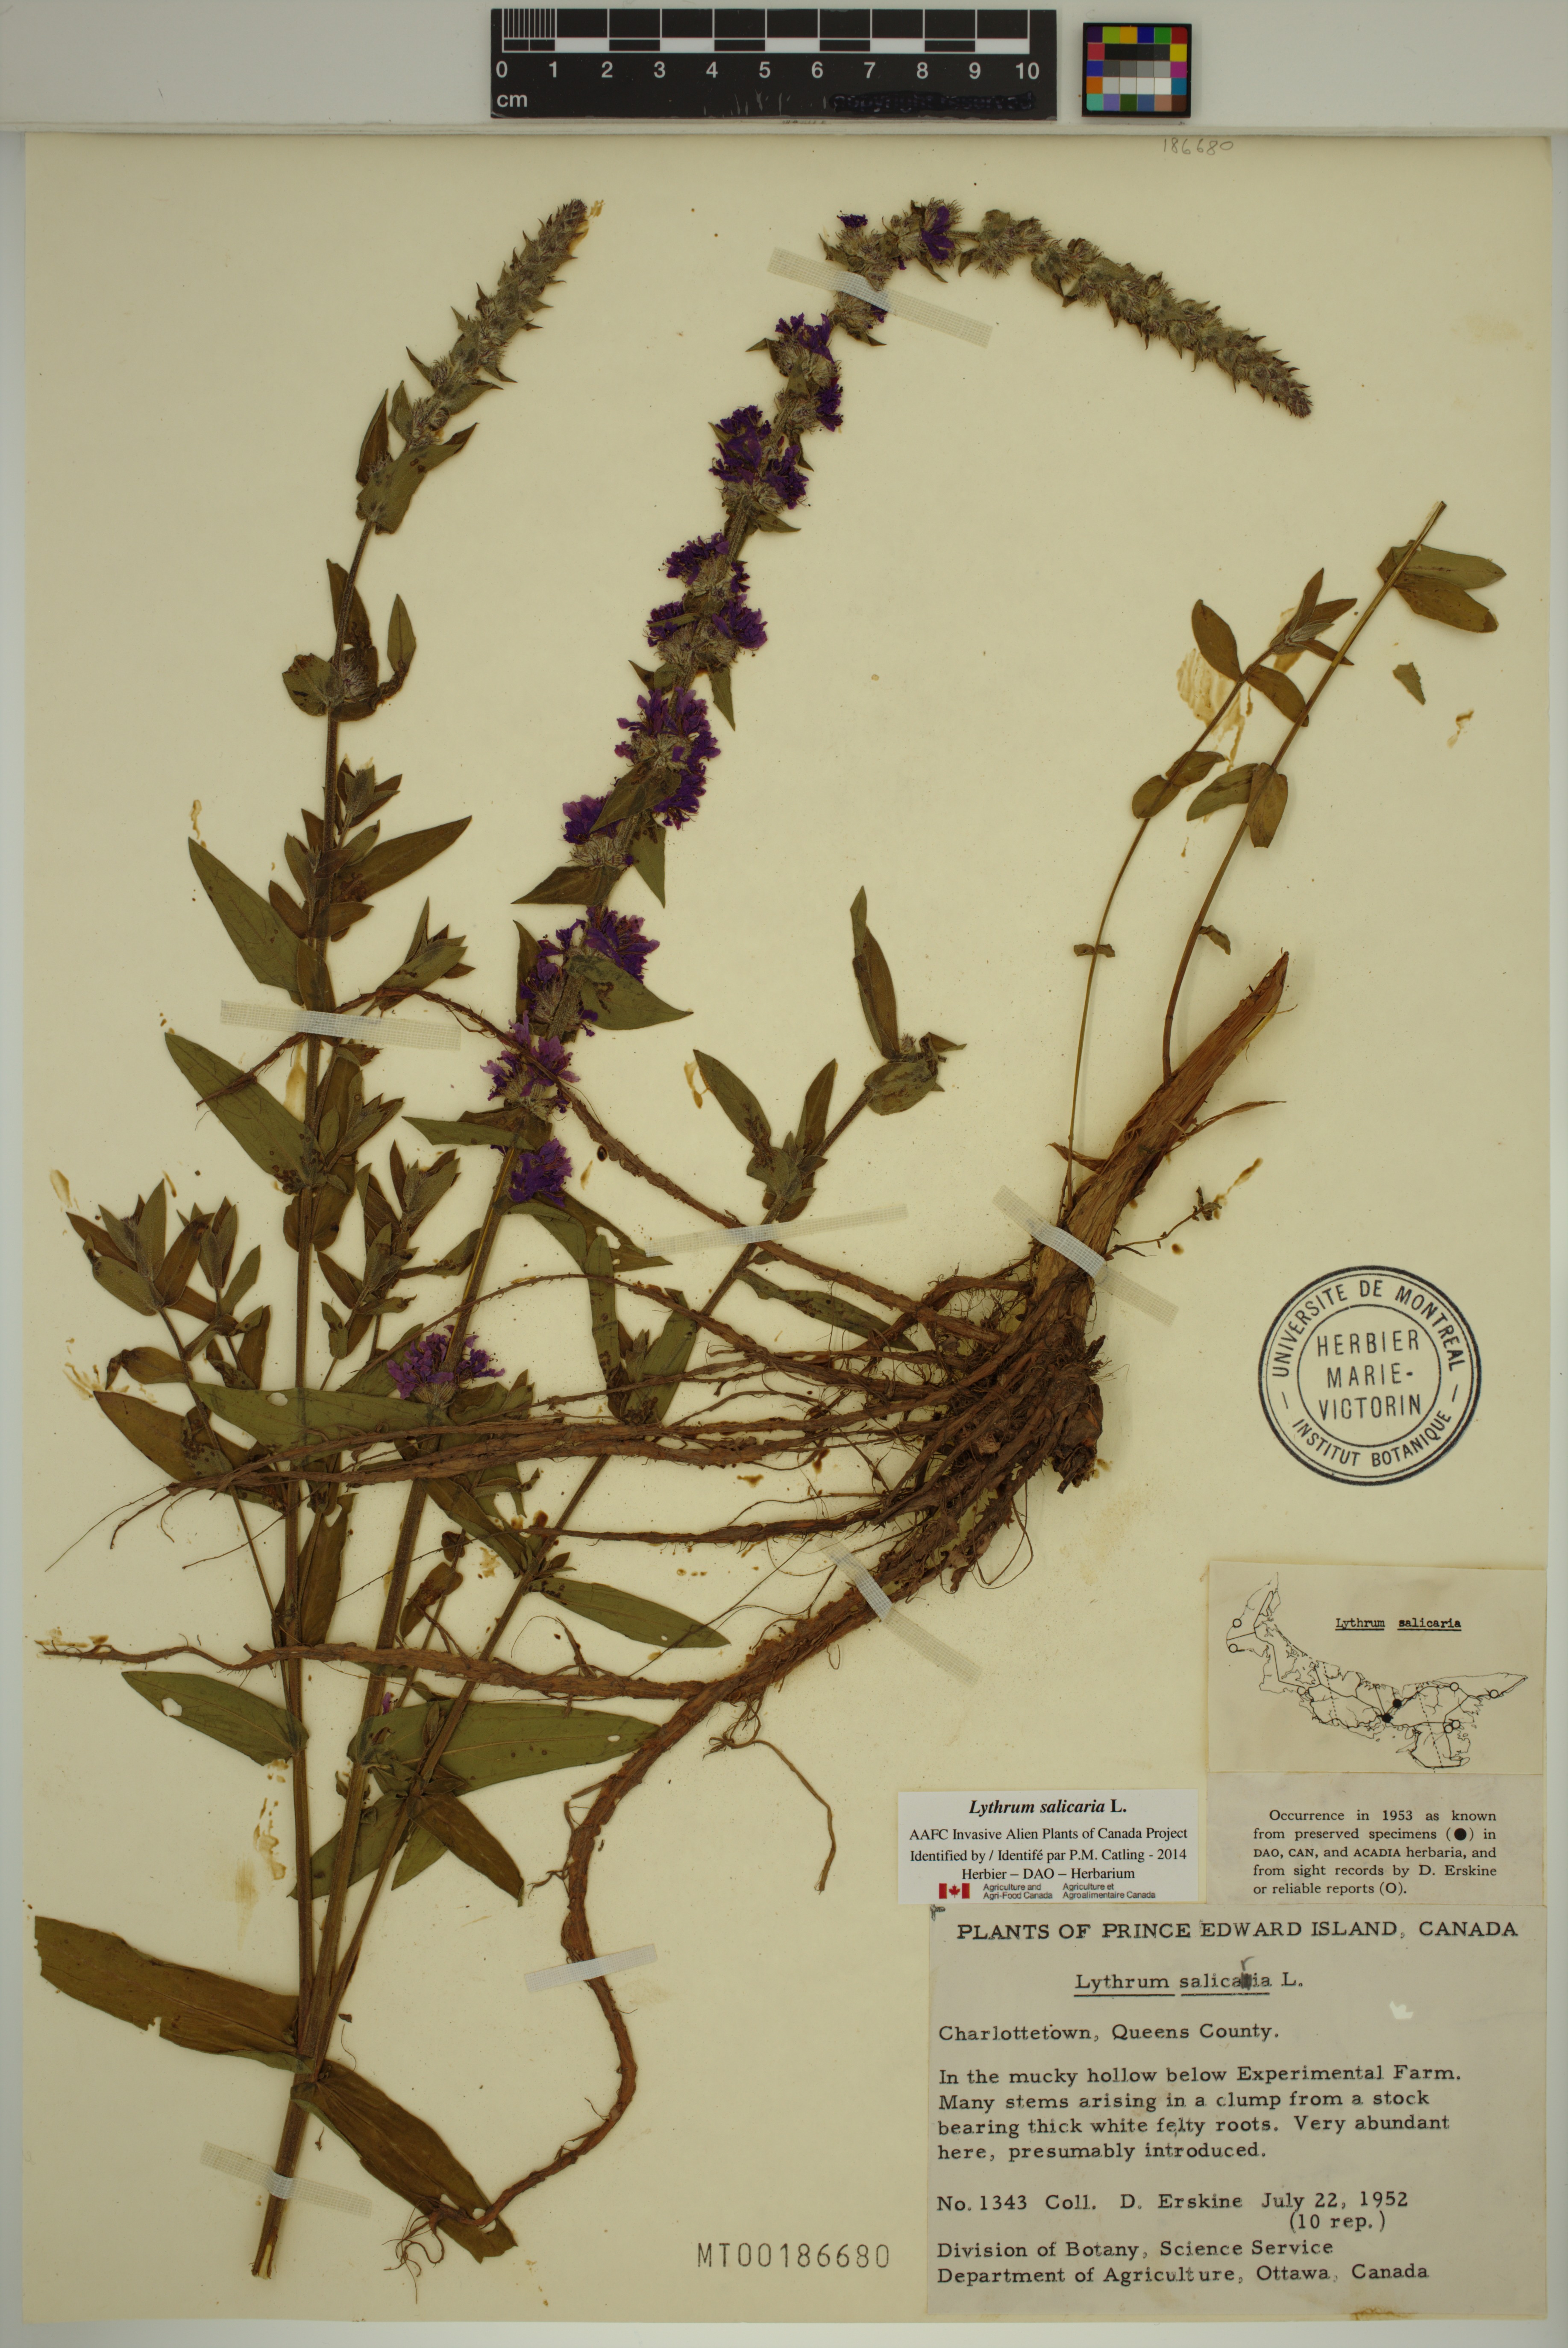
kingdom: Plantae
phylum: Tracheophyta
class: Magnoliopsida
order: Myrtales
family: Lythraceae
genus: Lythrum
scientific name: Lythrum salicaria
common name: Purple loosestrife
